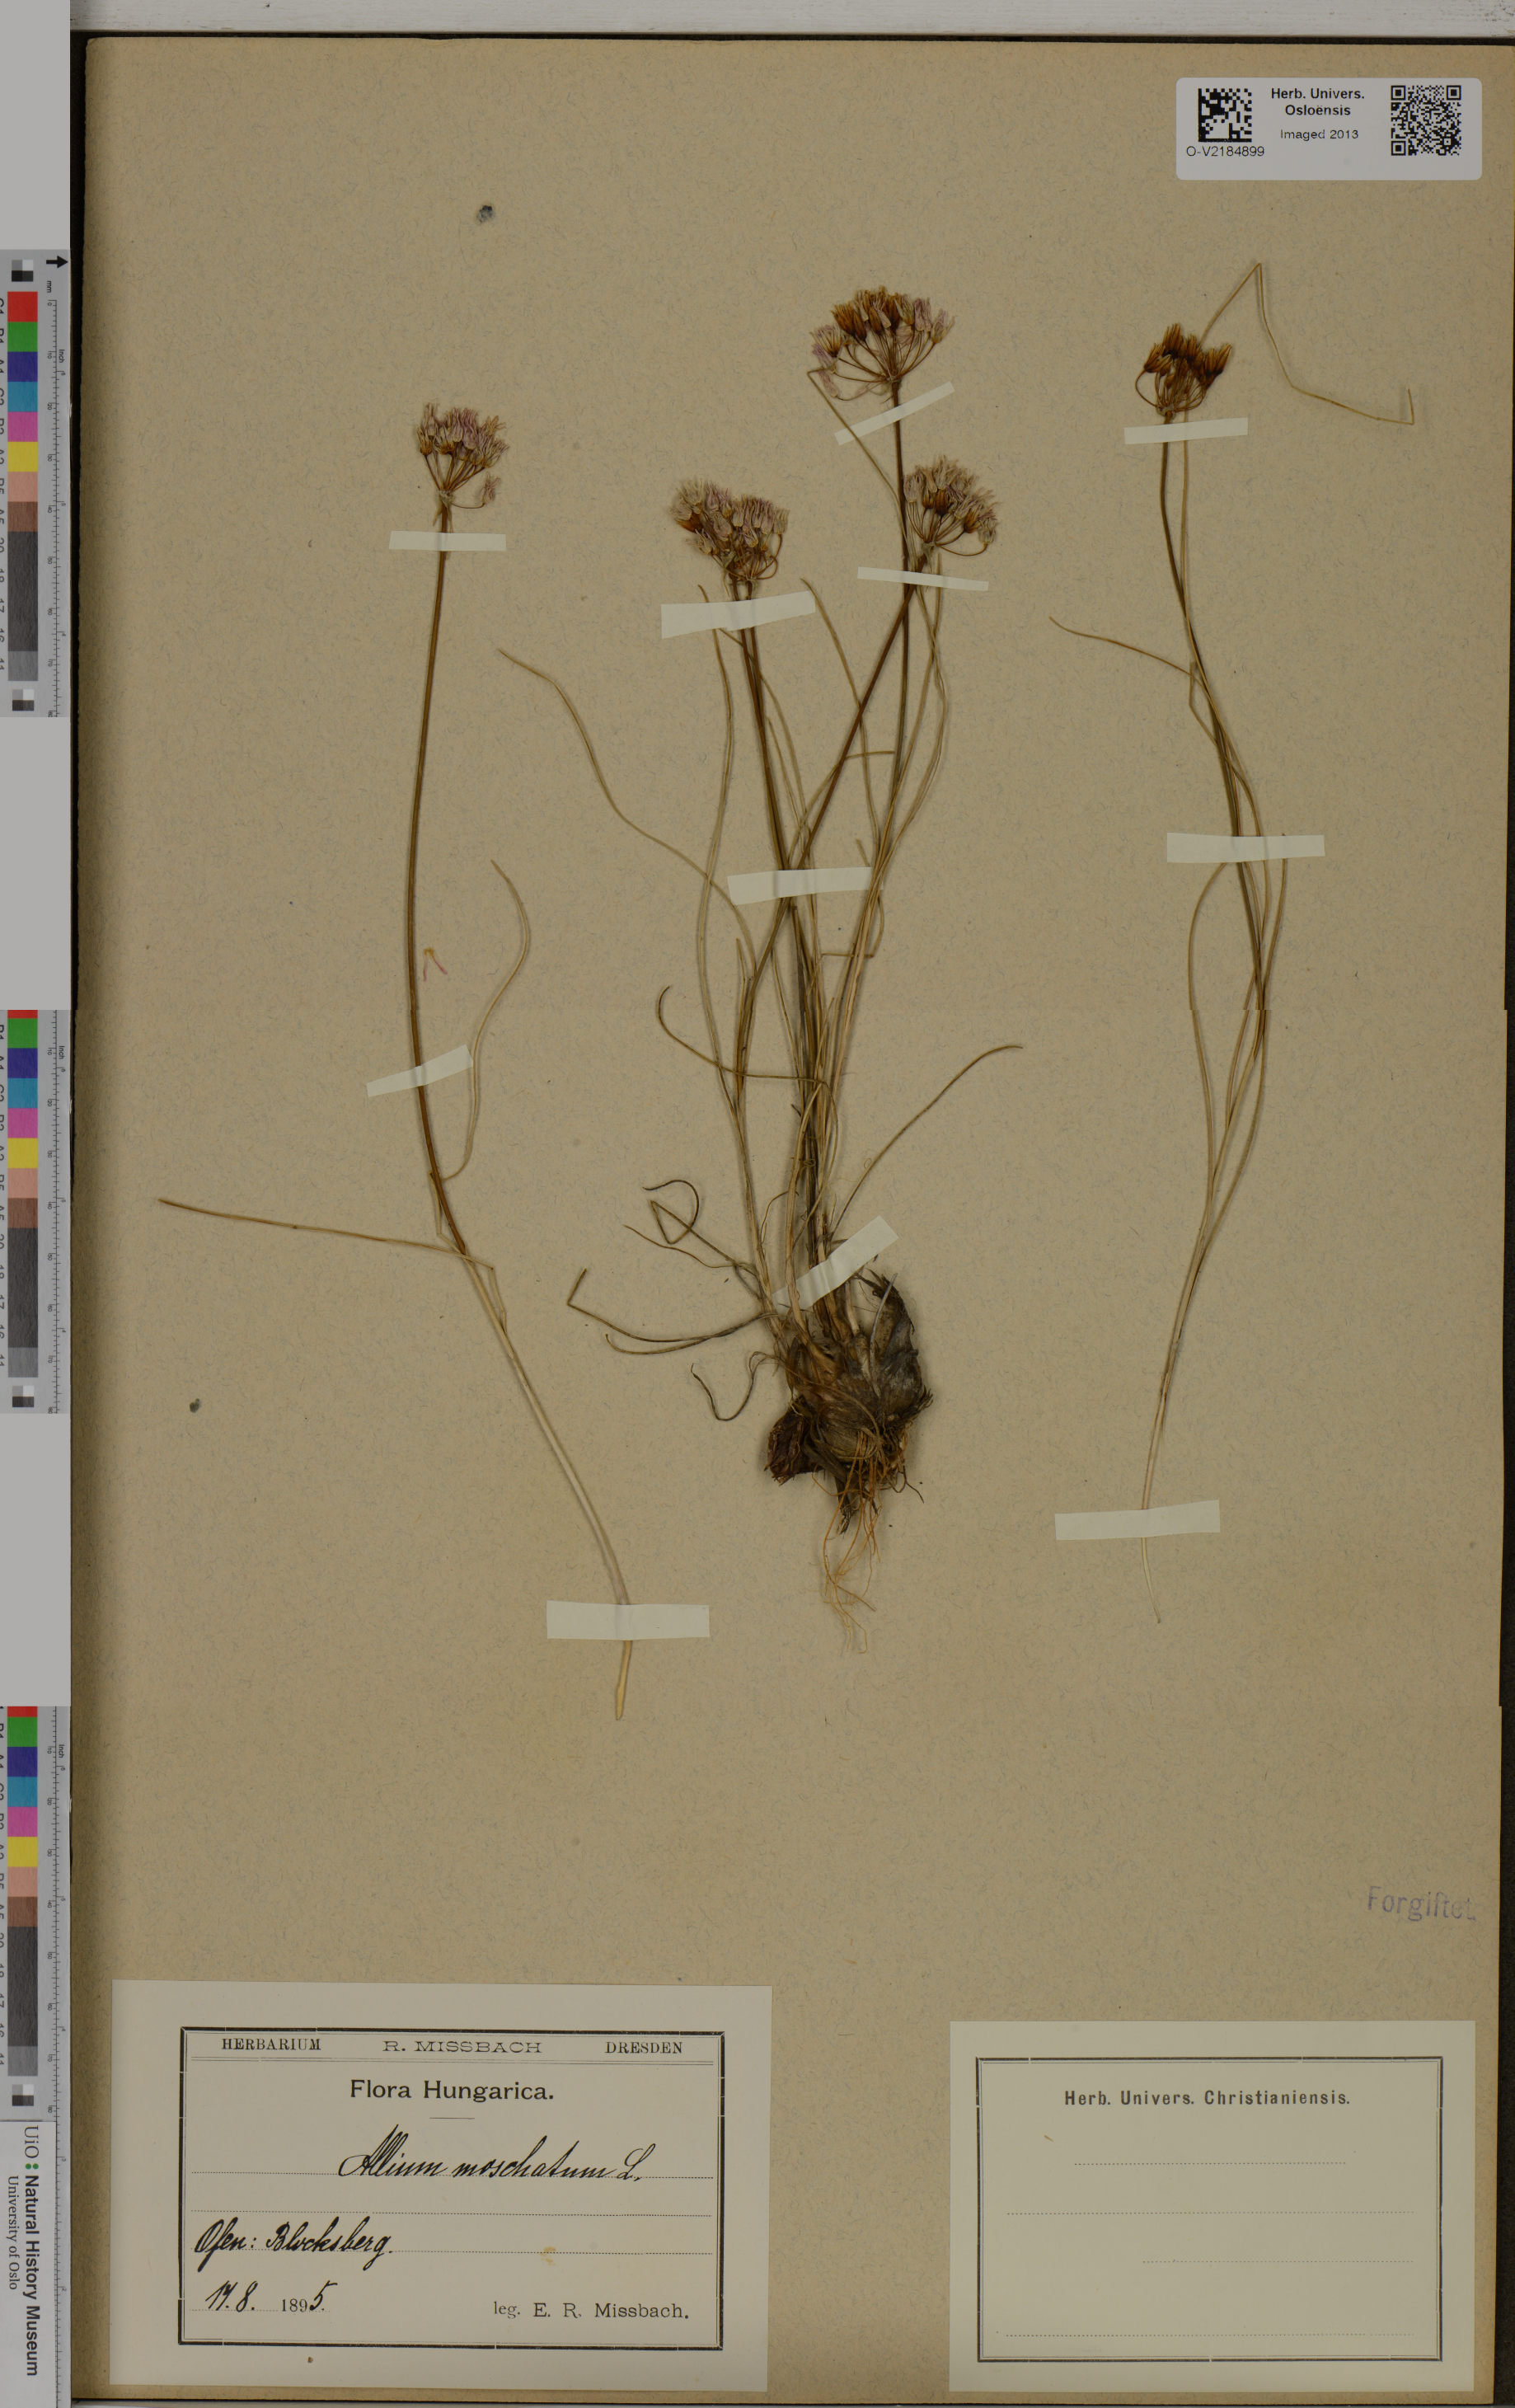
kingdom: Plantae
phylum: Tracheophyta
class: Liliopsida
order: Asparagales
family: Amaryllidaceae
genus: Allium
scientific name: Allium moschatum
